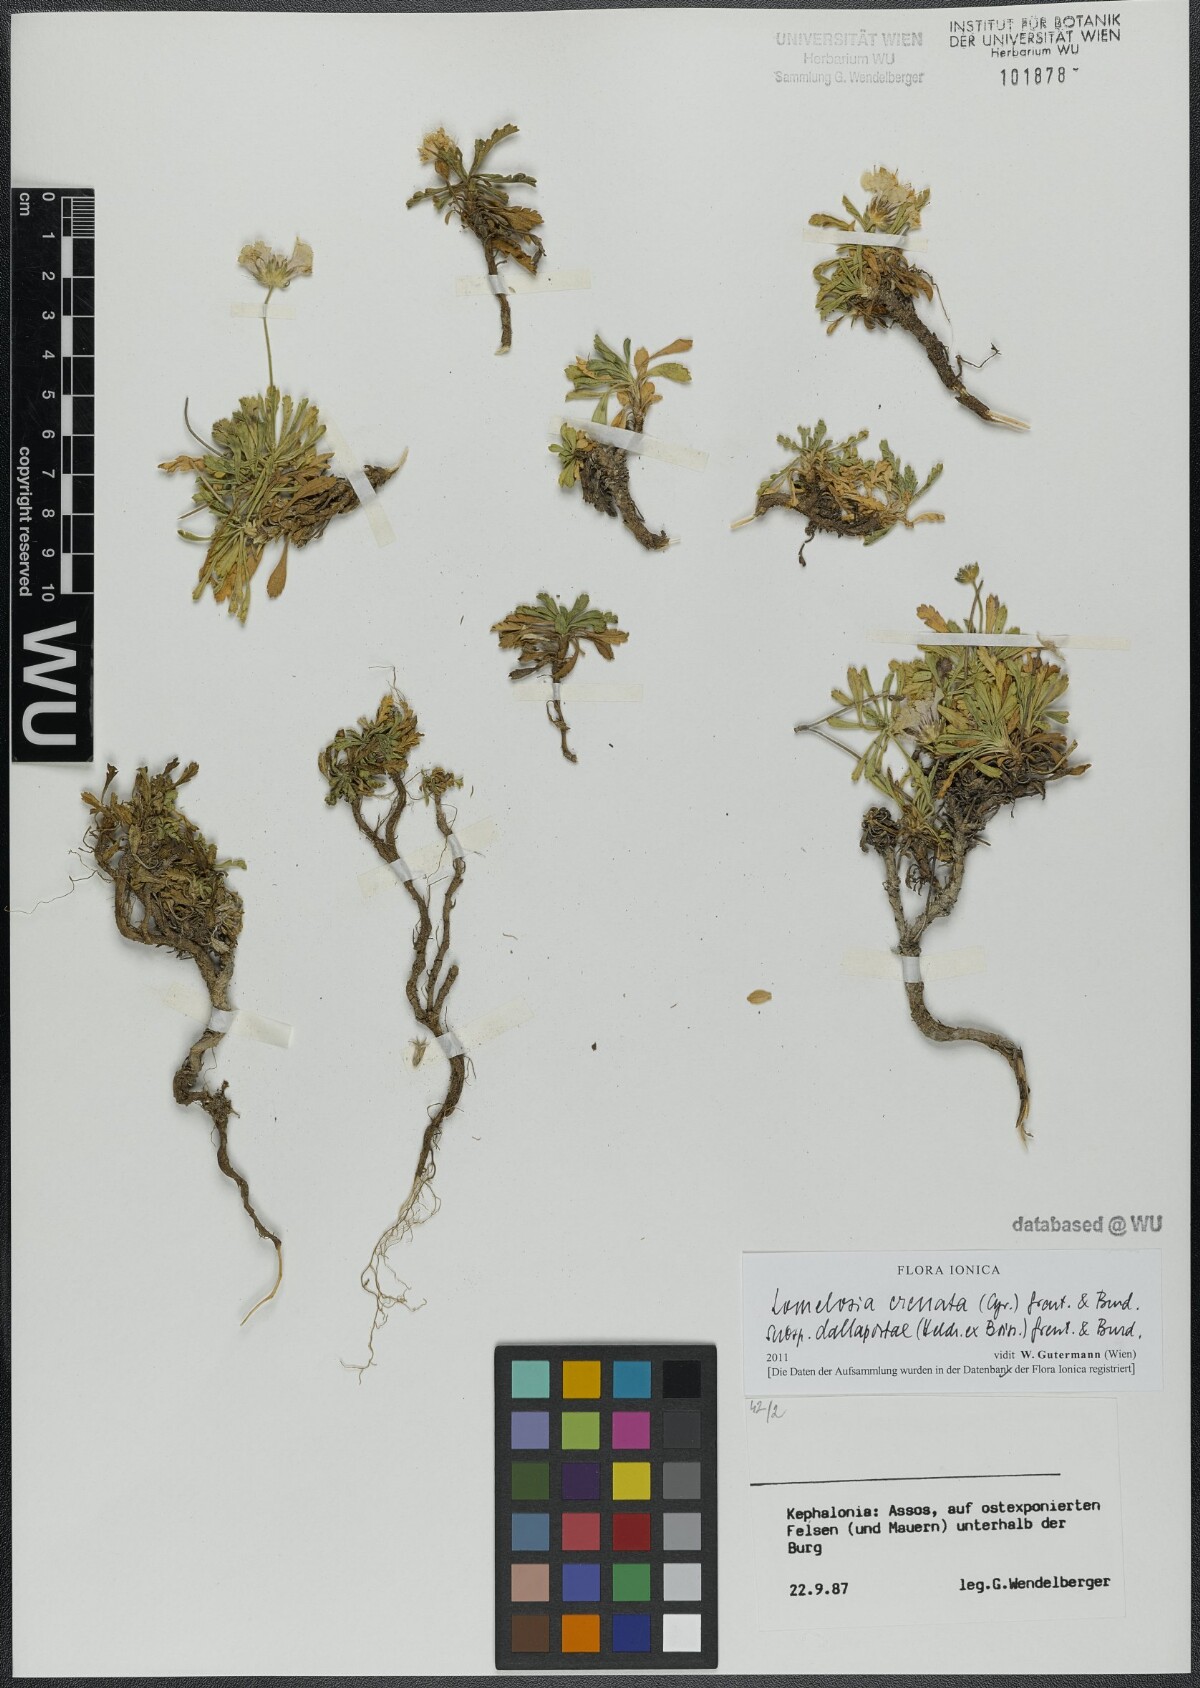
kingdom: Plantae
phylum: Tracheophyta
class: Magnoliopsida
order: Dipsacales
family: Caprifoliaceae
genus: Lomelosia
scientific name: Lomelosia crenata
